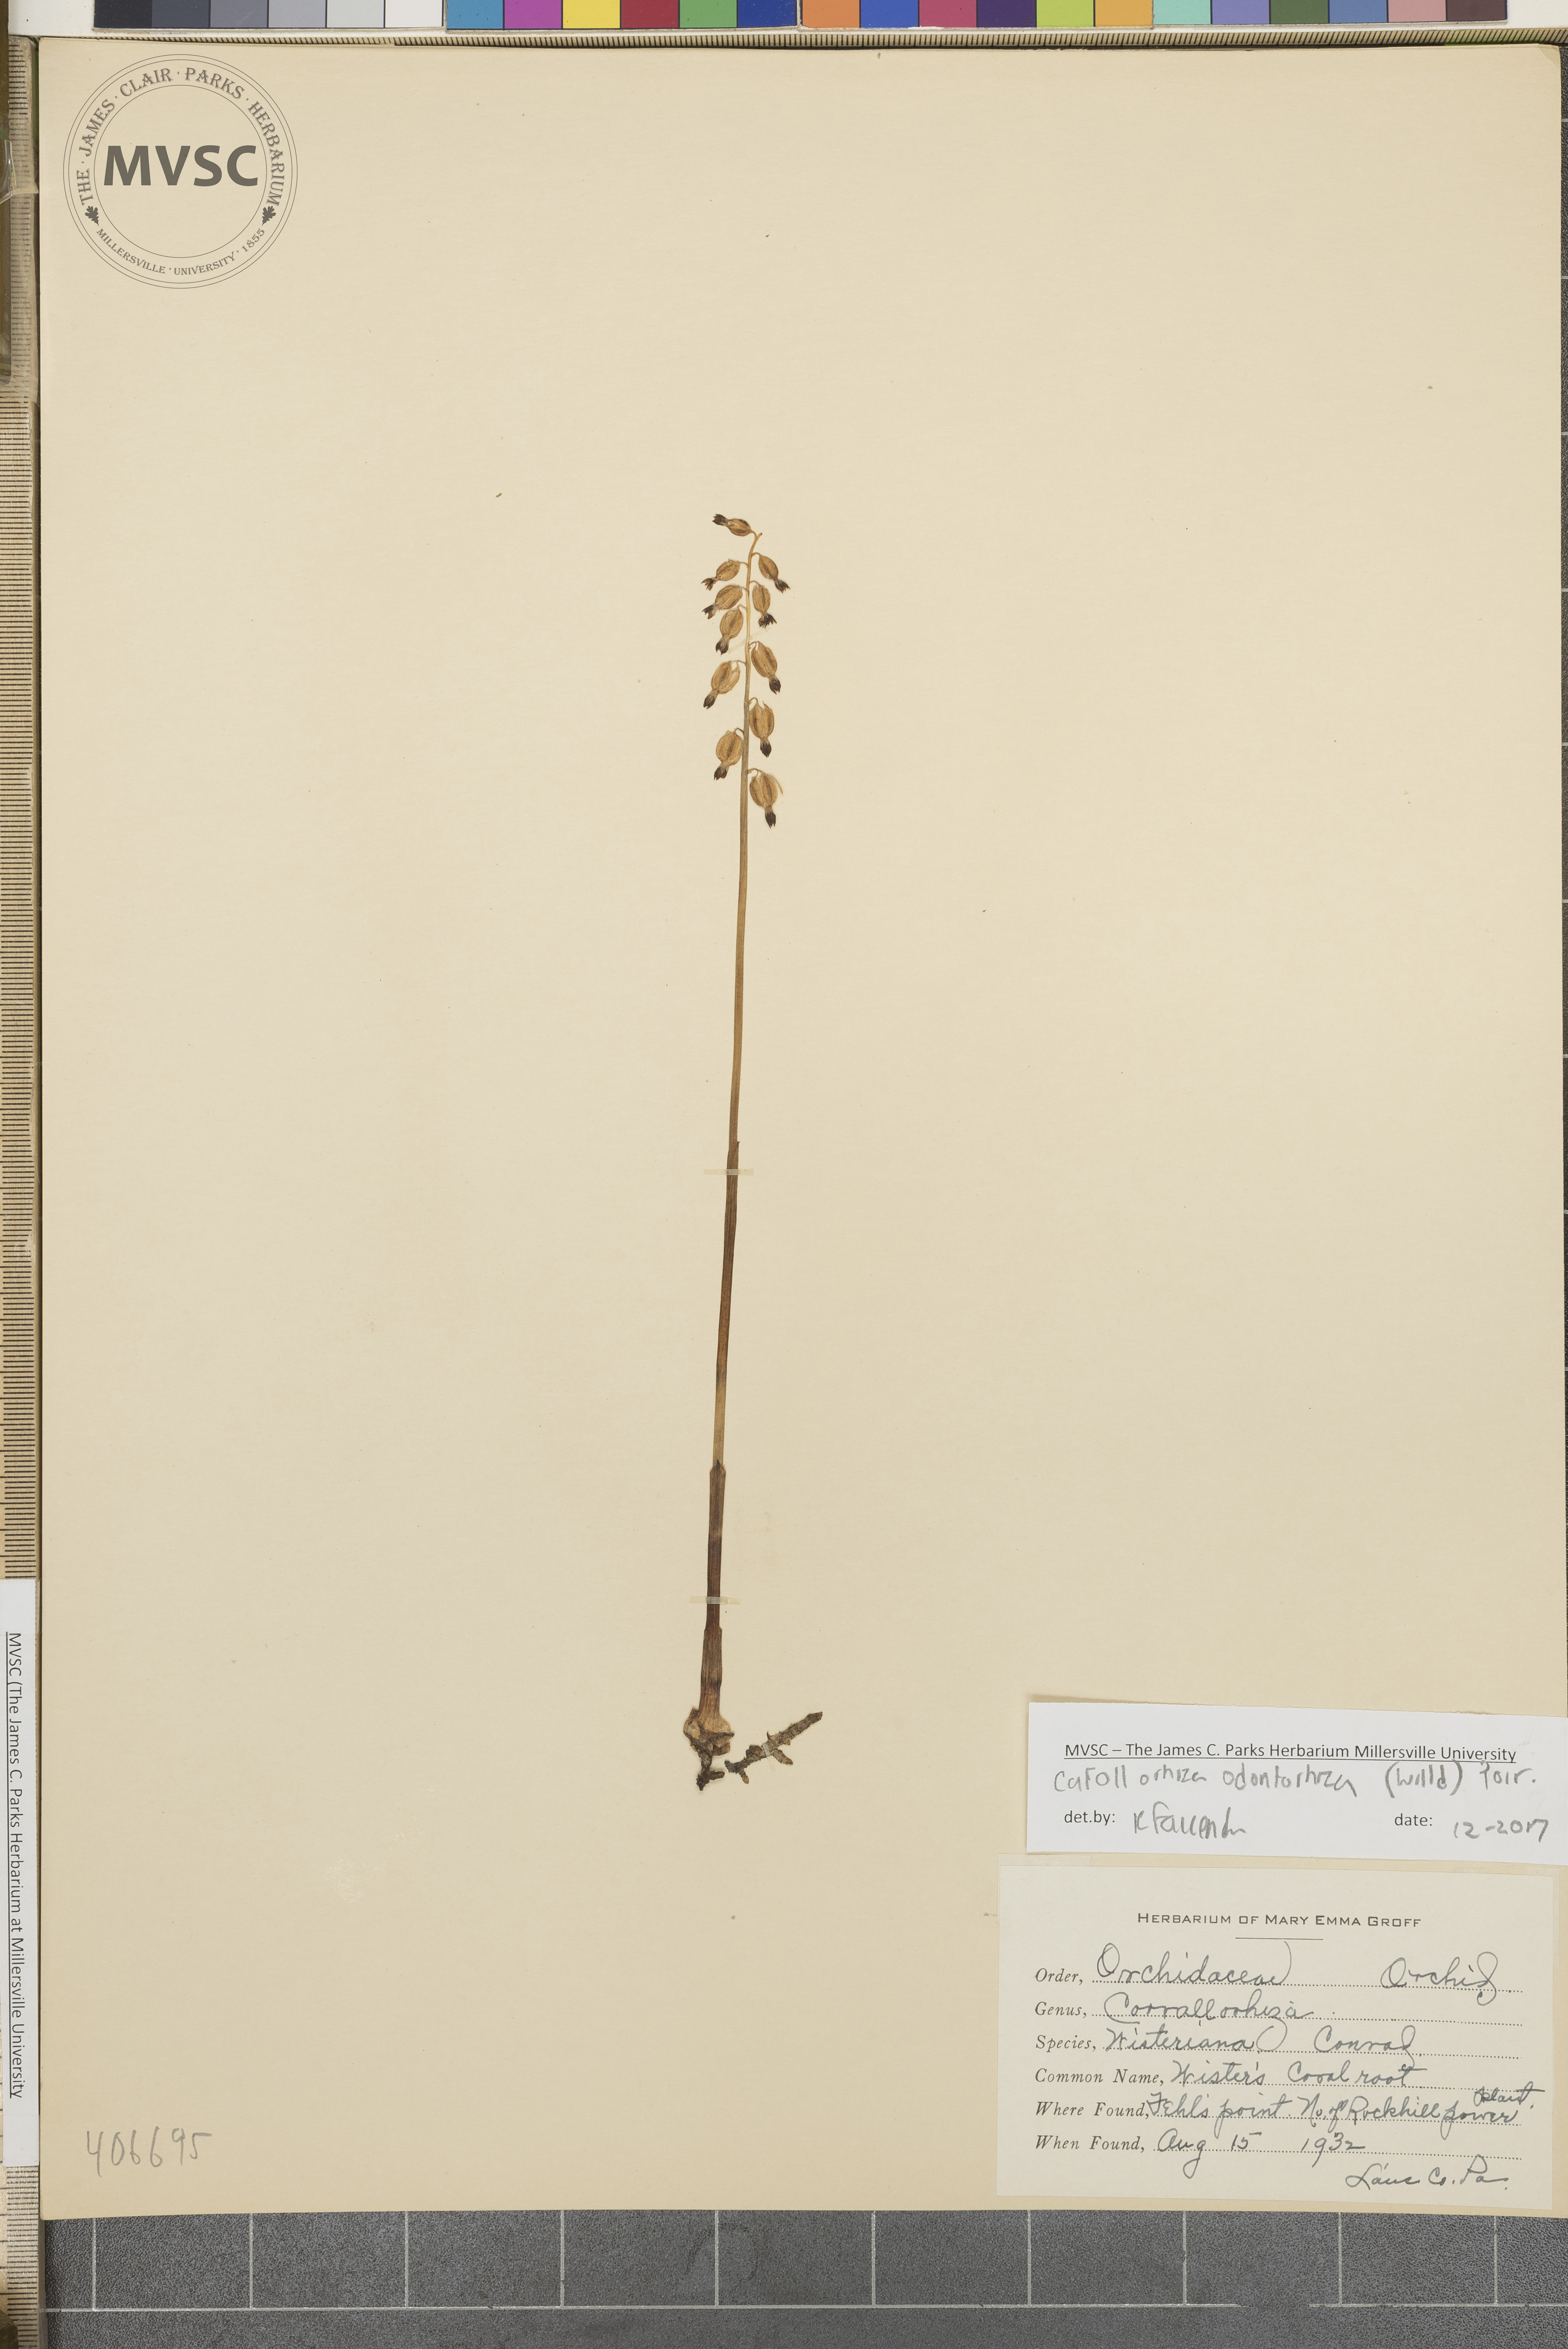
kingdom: Plantae
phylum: Tracheophyta
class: Liliopsida
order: Asparagales
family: Orchidaceae
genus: Corallorhiza
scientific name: Corallorhiza odontorhiza
